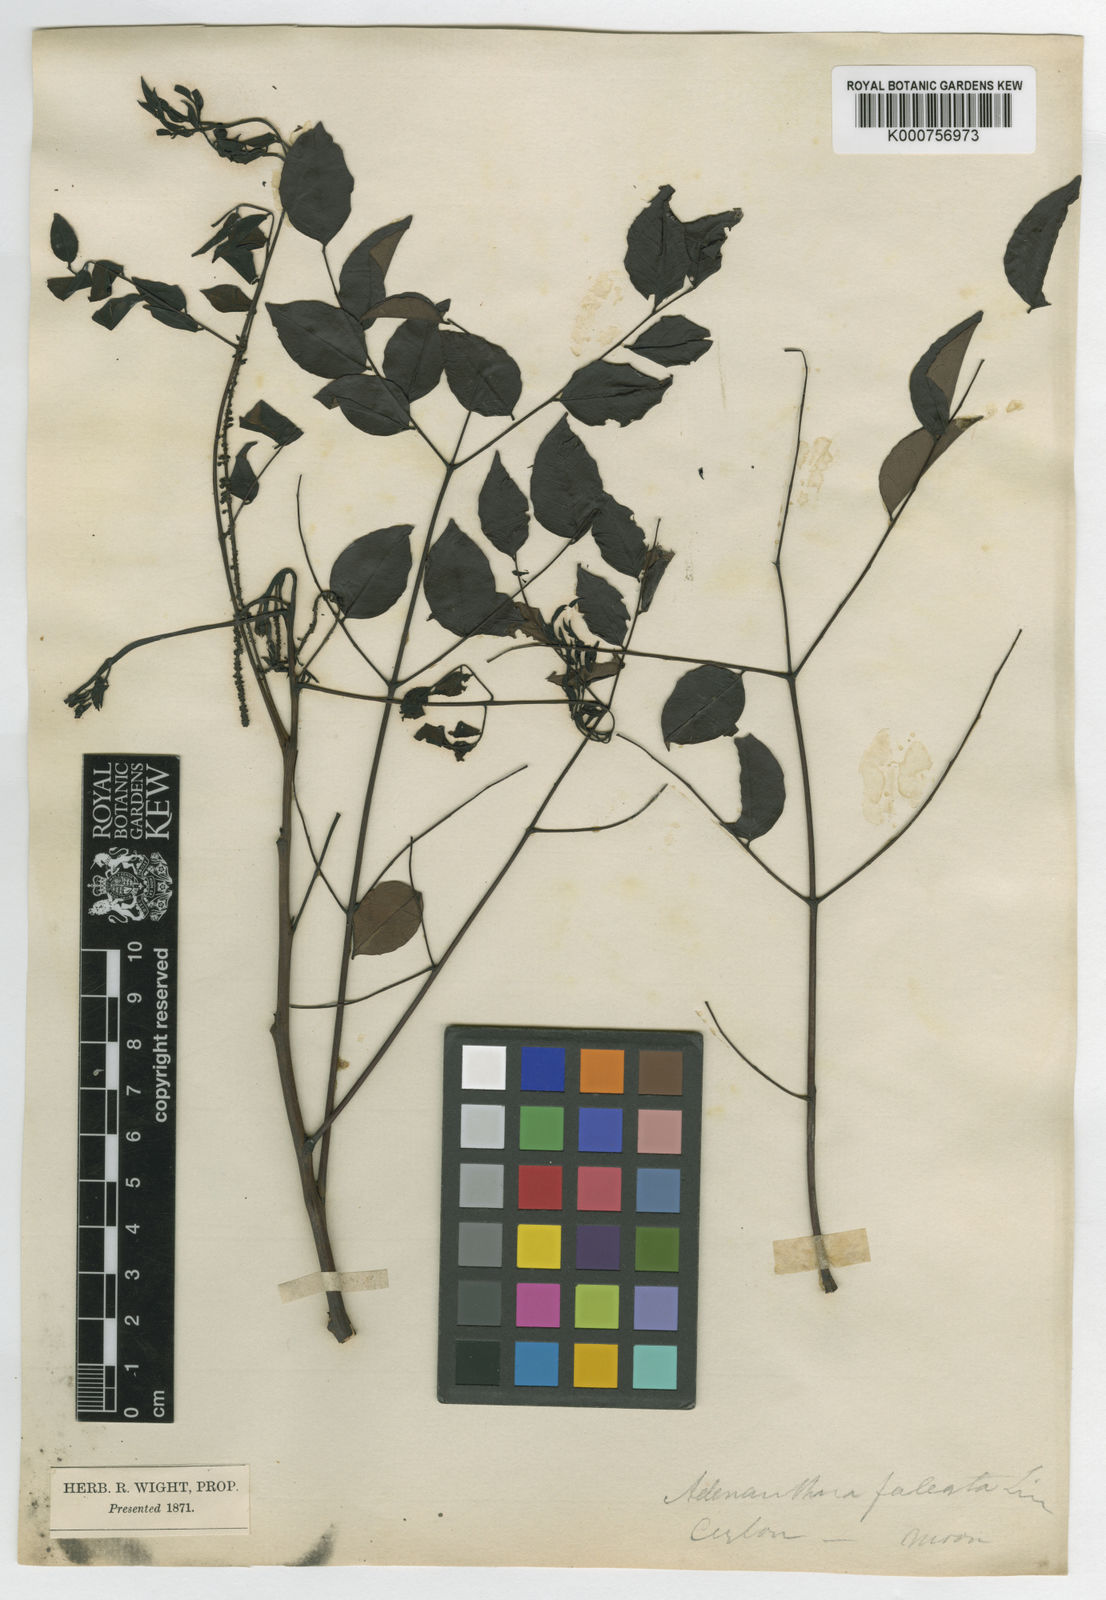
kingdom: Plantae
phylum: Tracheophyta
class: Magnoliopsida
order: Fabales
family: Fabaceae
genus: Adenanthera
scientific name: Adenanthera aglaosperma
